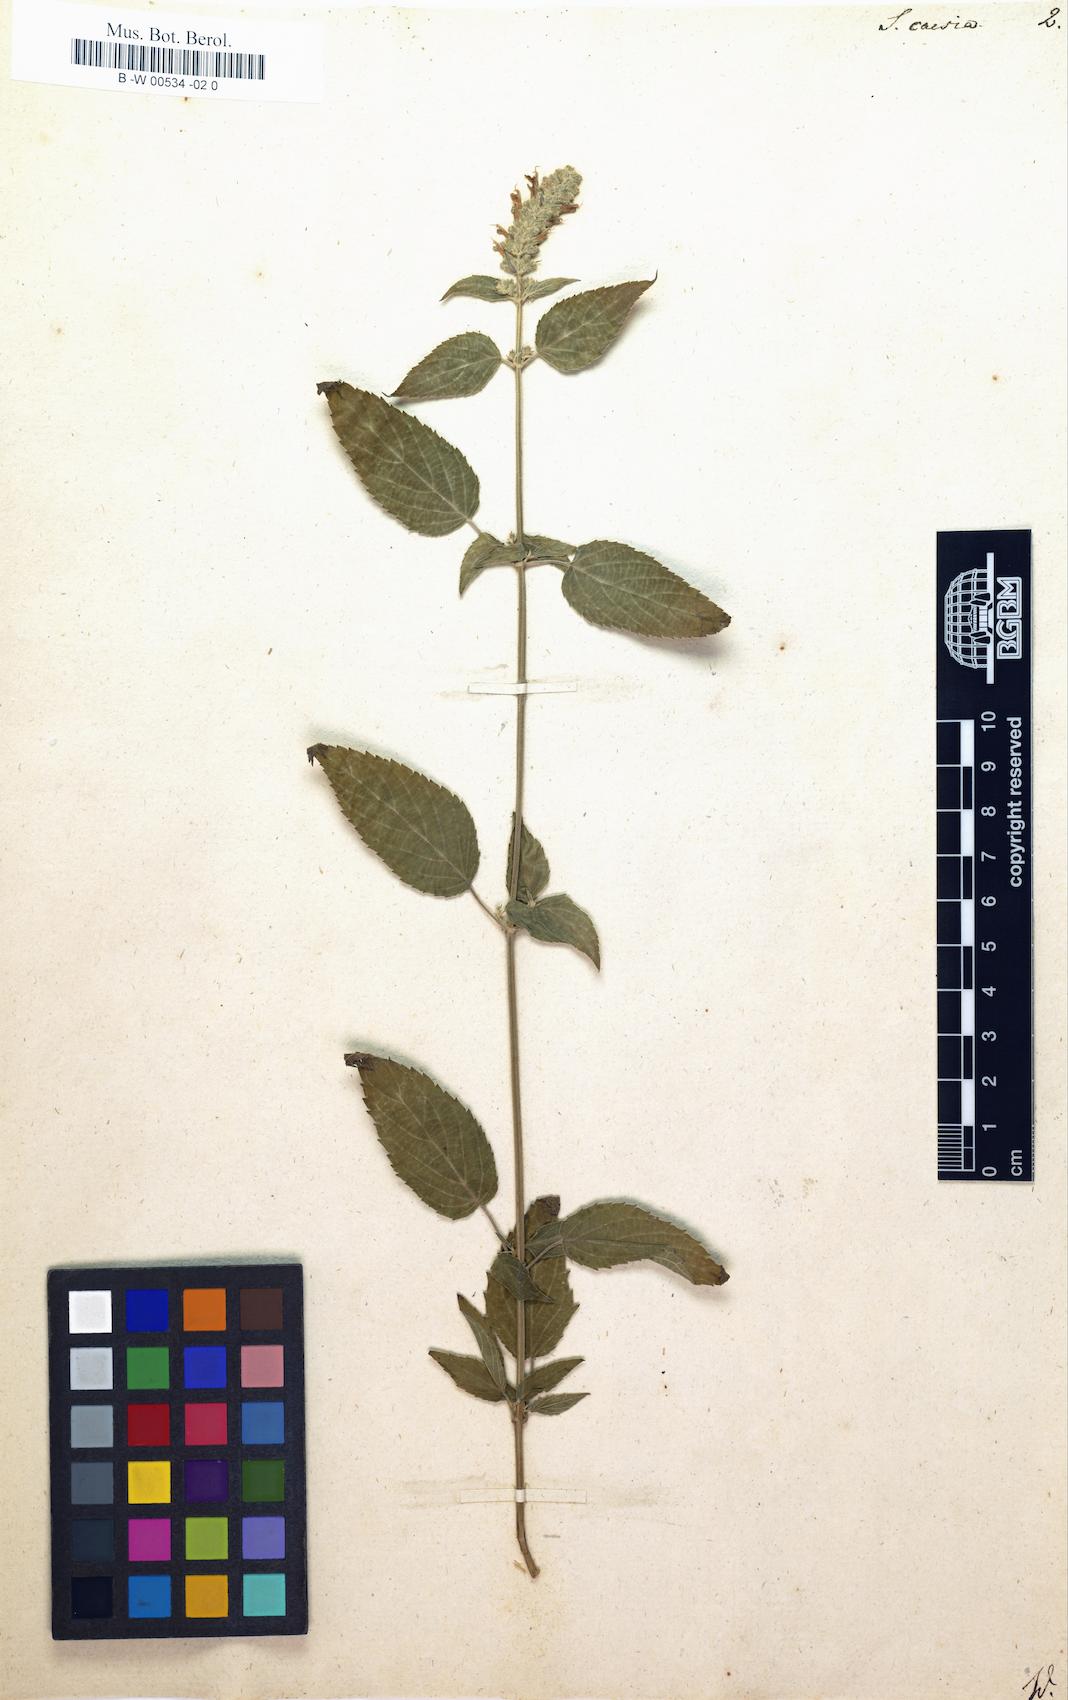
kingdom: Plantae
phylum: Tracheophyta
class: Magnoliopsida
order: Lamiales
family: Lamiaceae
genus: Salvia
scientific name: Salvia
